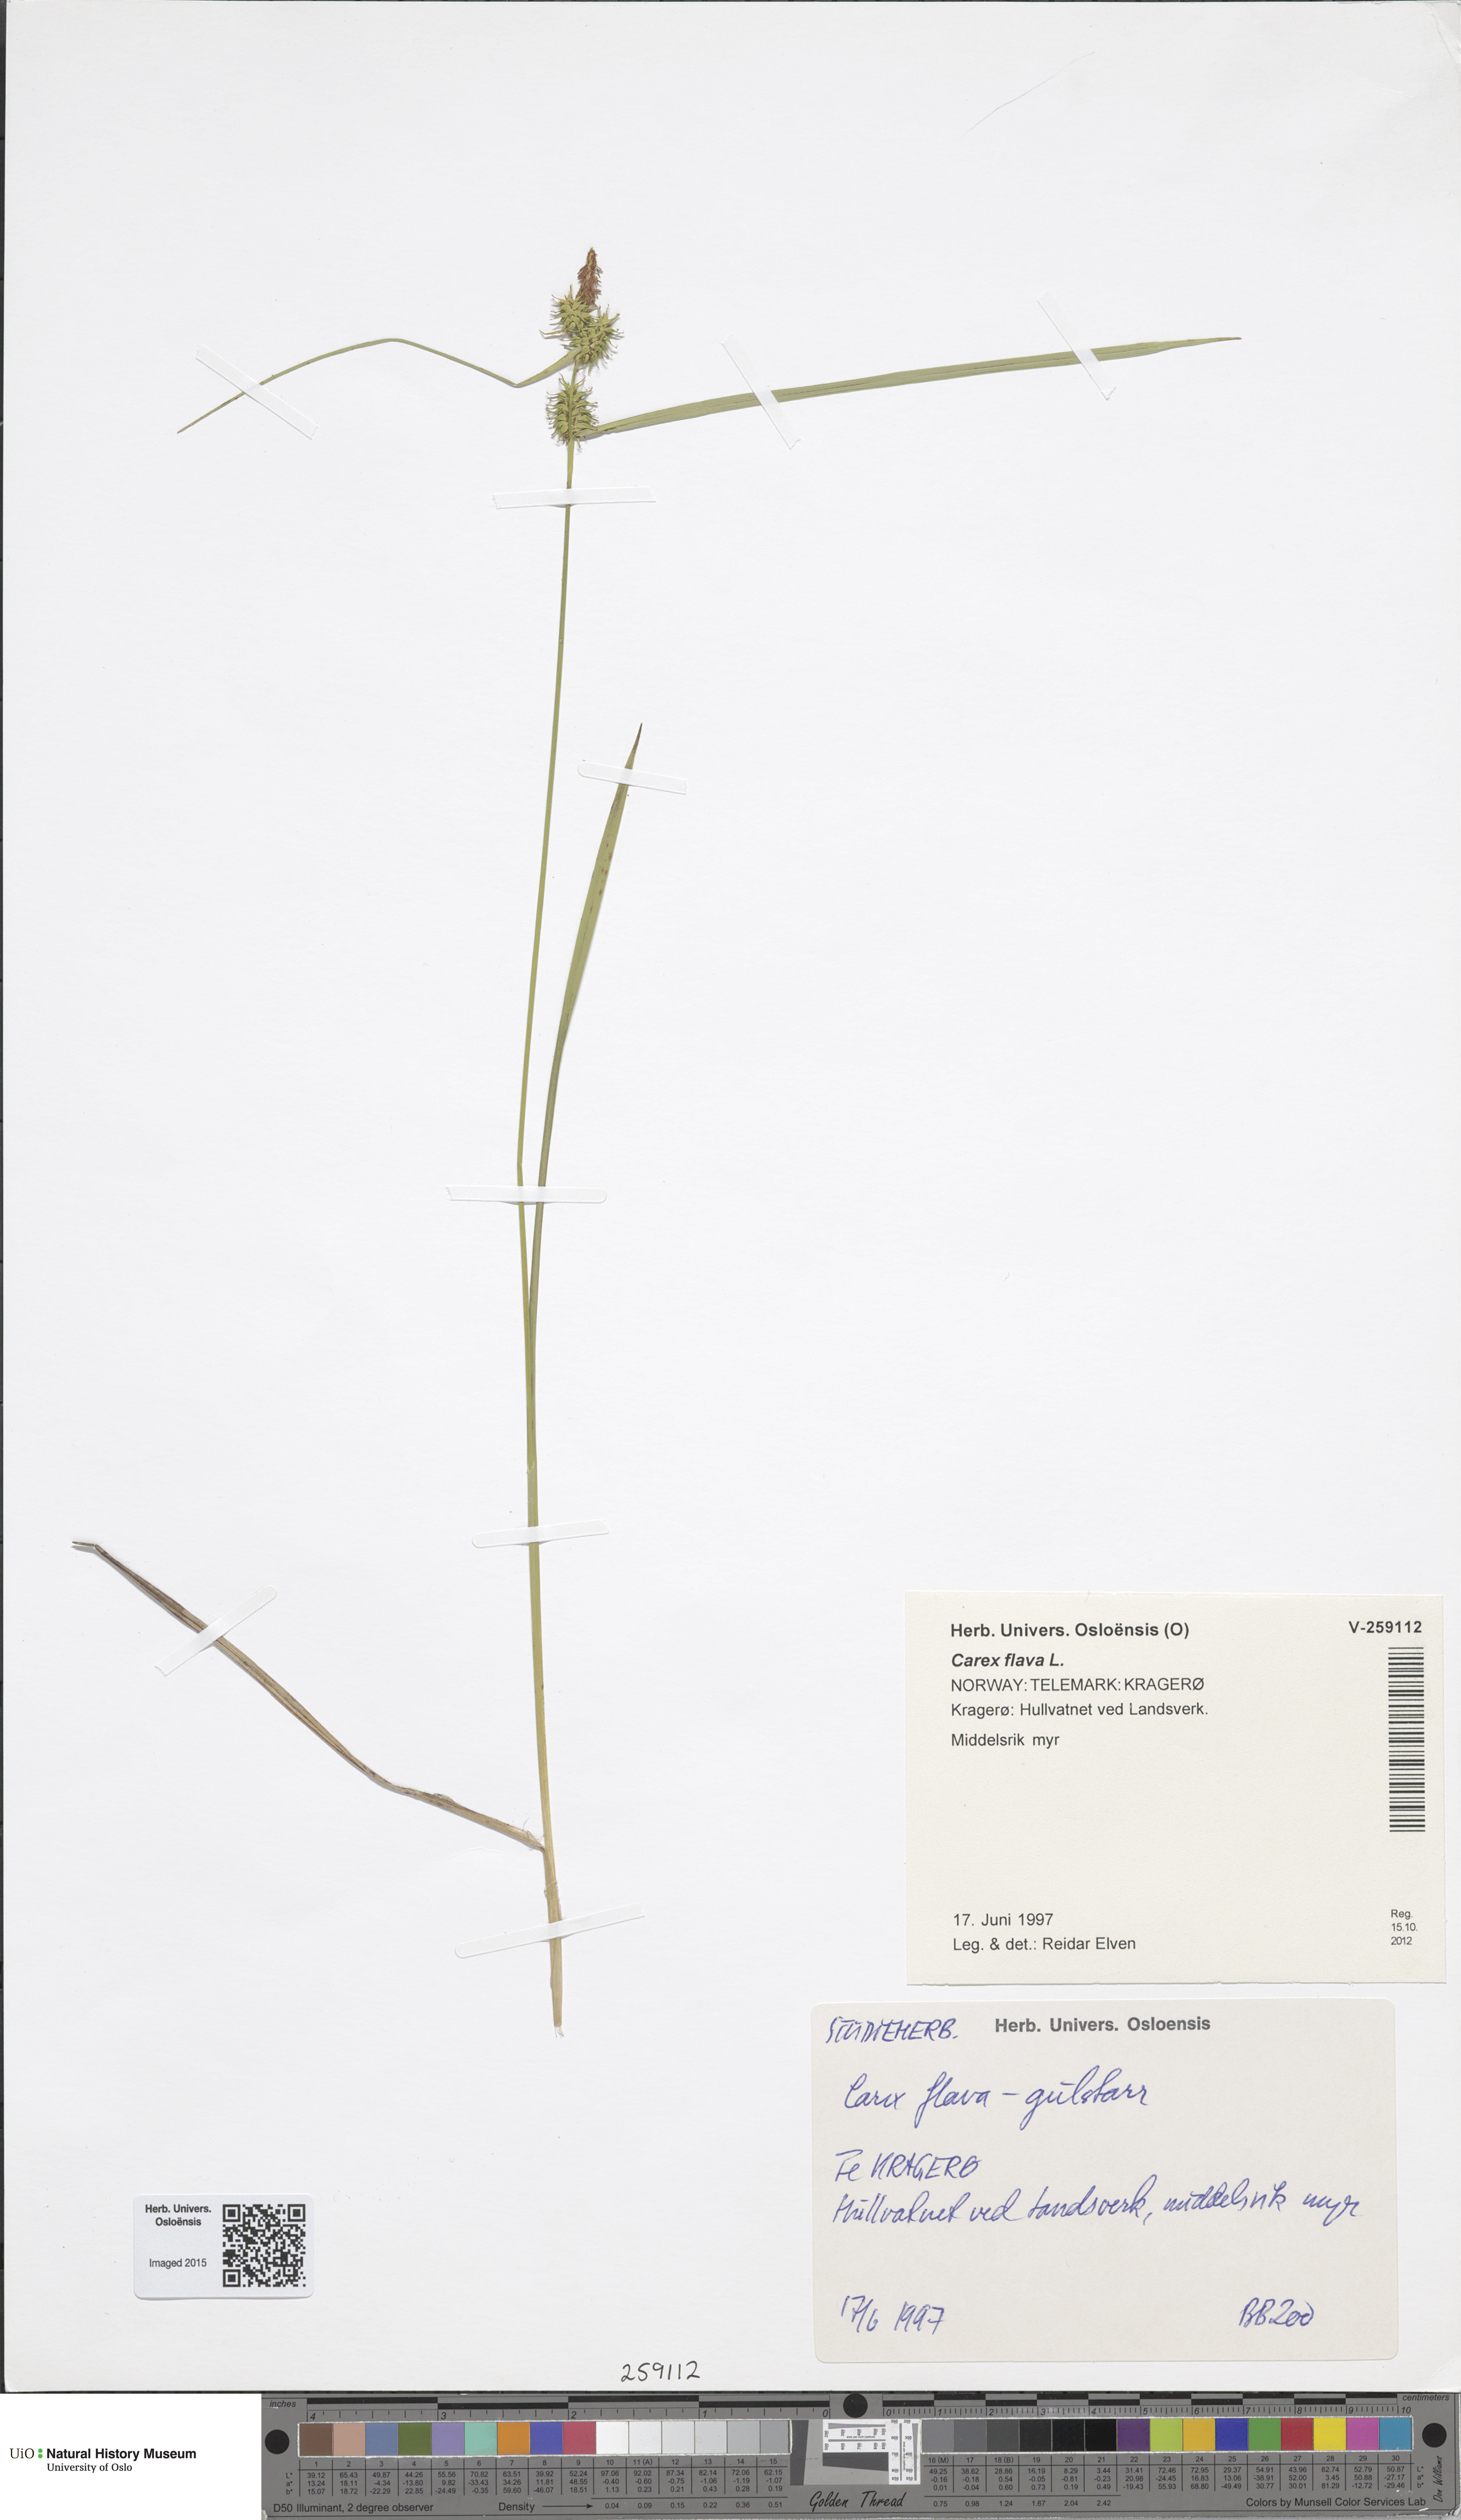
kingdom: Plantae
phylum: Tracheophyta
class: Liliopsida
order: Poales
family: Cyperaceae
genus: Carex
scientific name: Carex flava
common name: Large yellow-sedge
